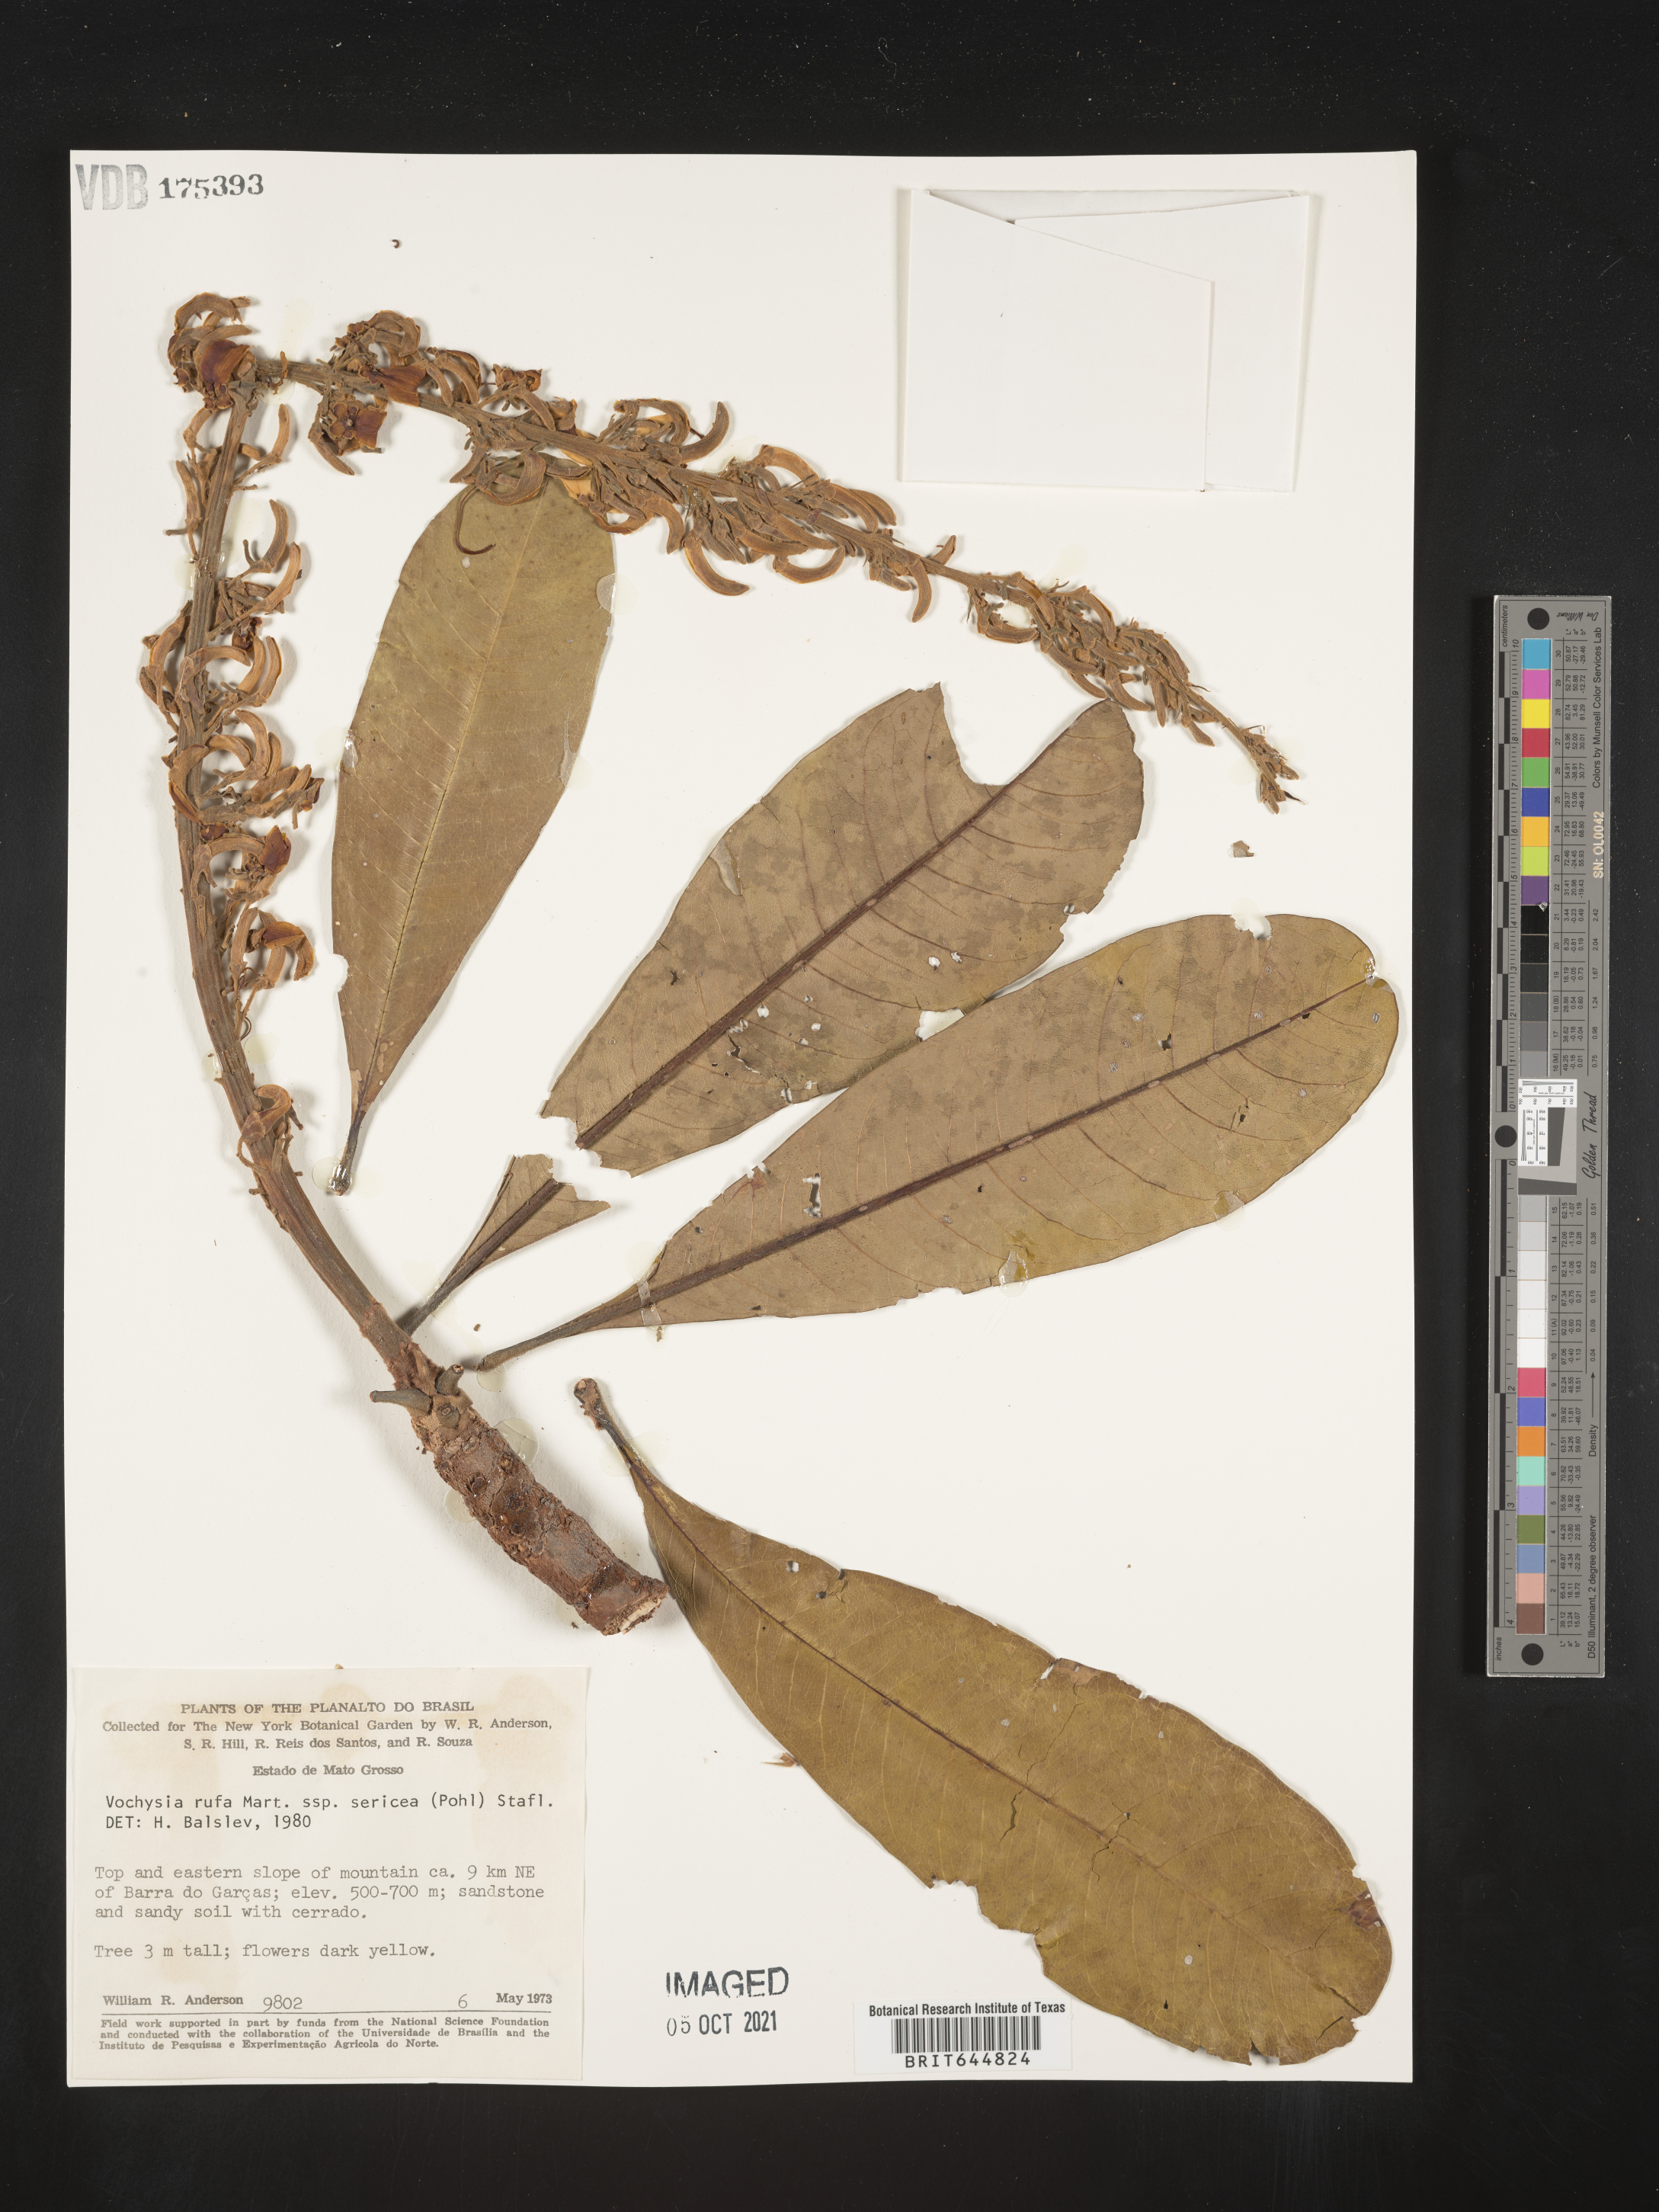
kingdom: Plantae
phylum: Tracheophyta
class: Magnoliopsida
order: Myrtales
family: Vochysiaceae
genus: Vochysia
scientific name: Vochysia
